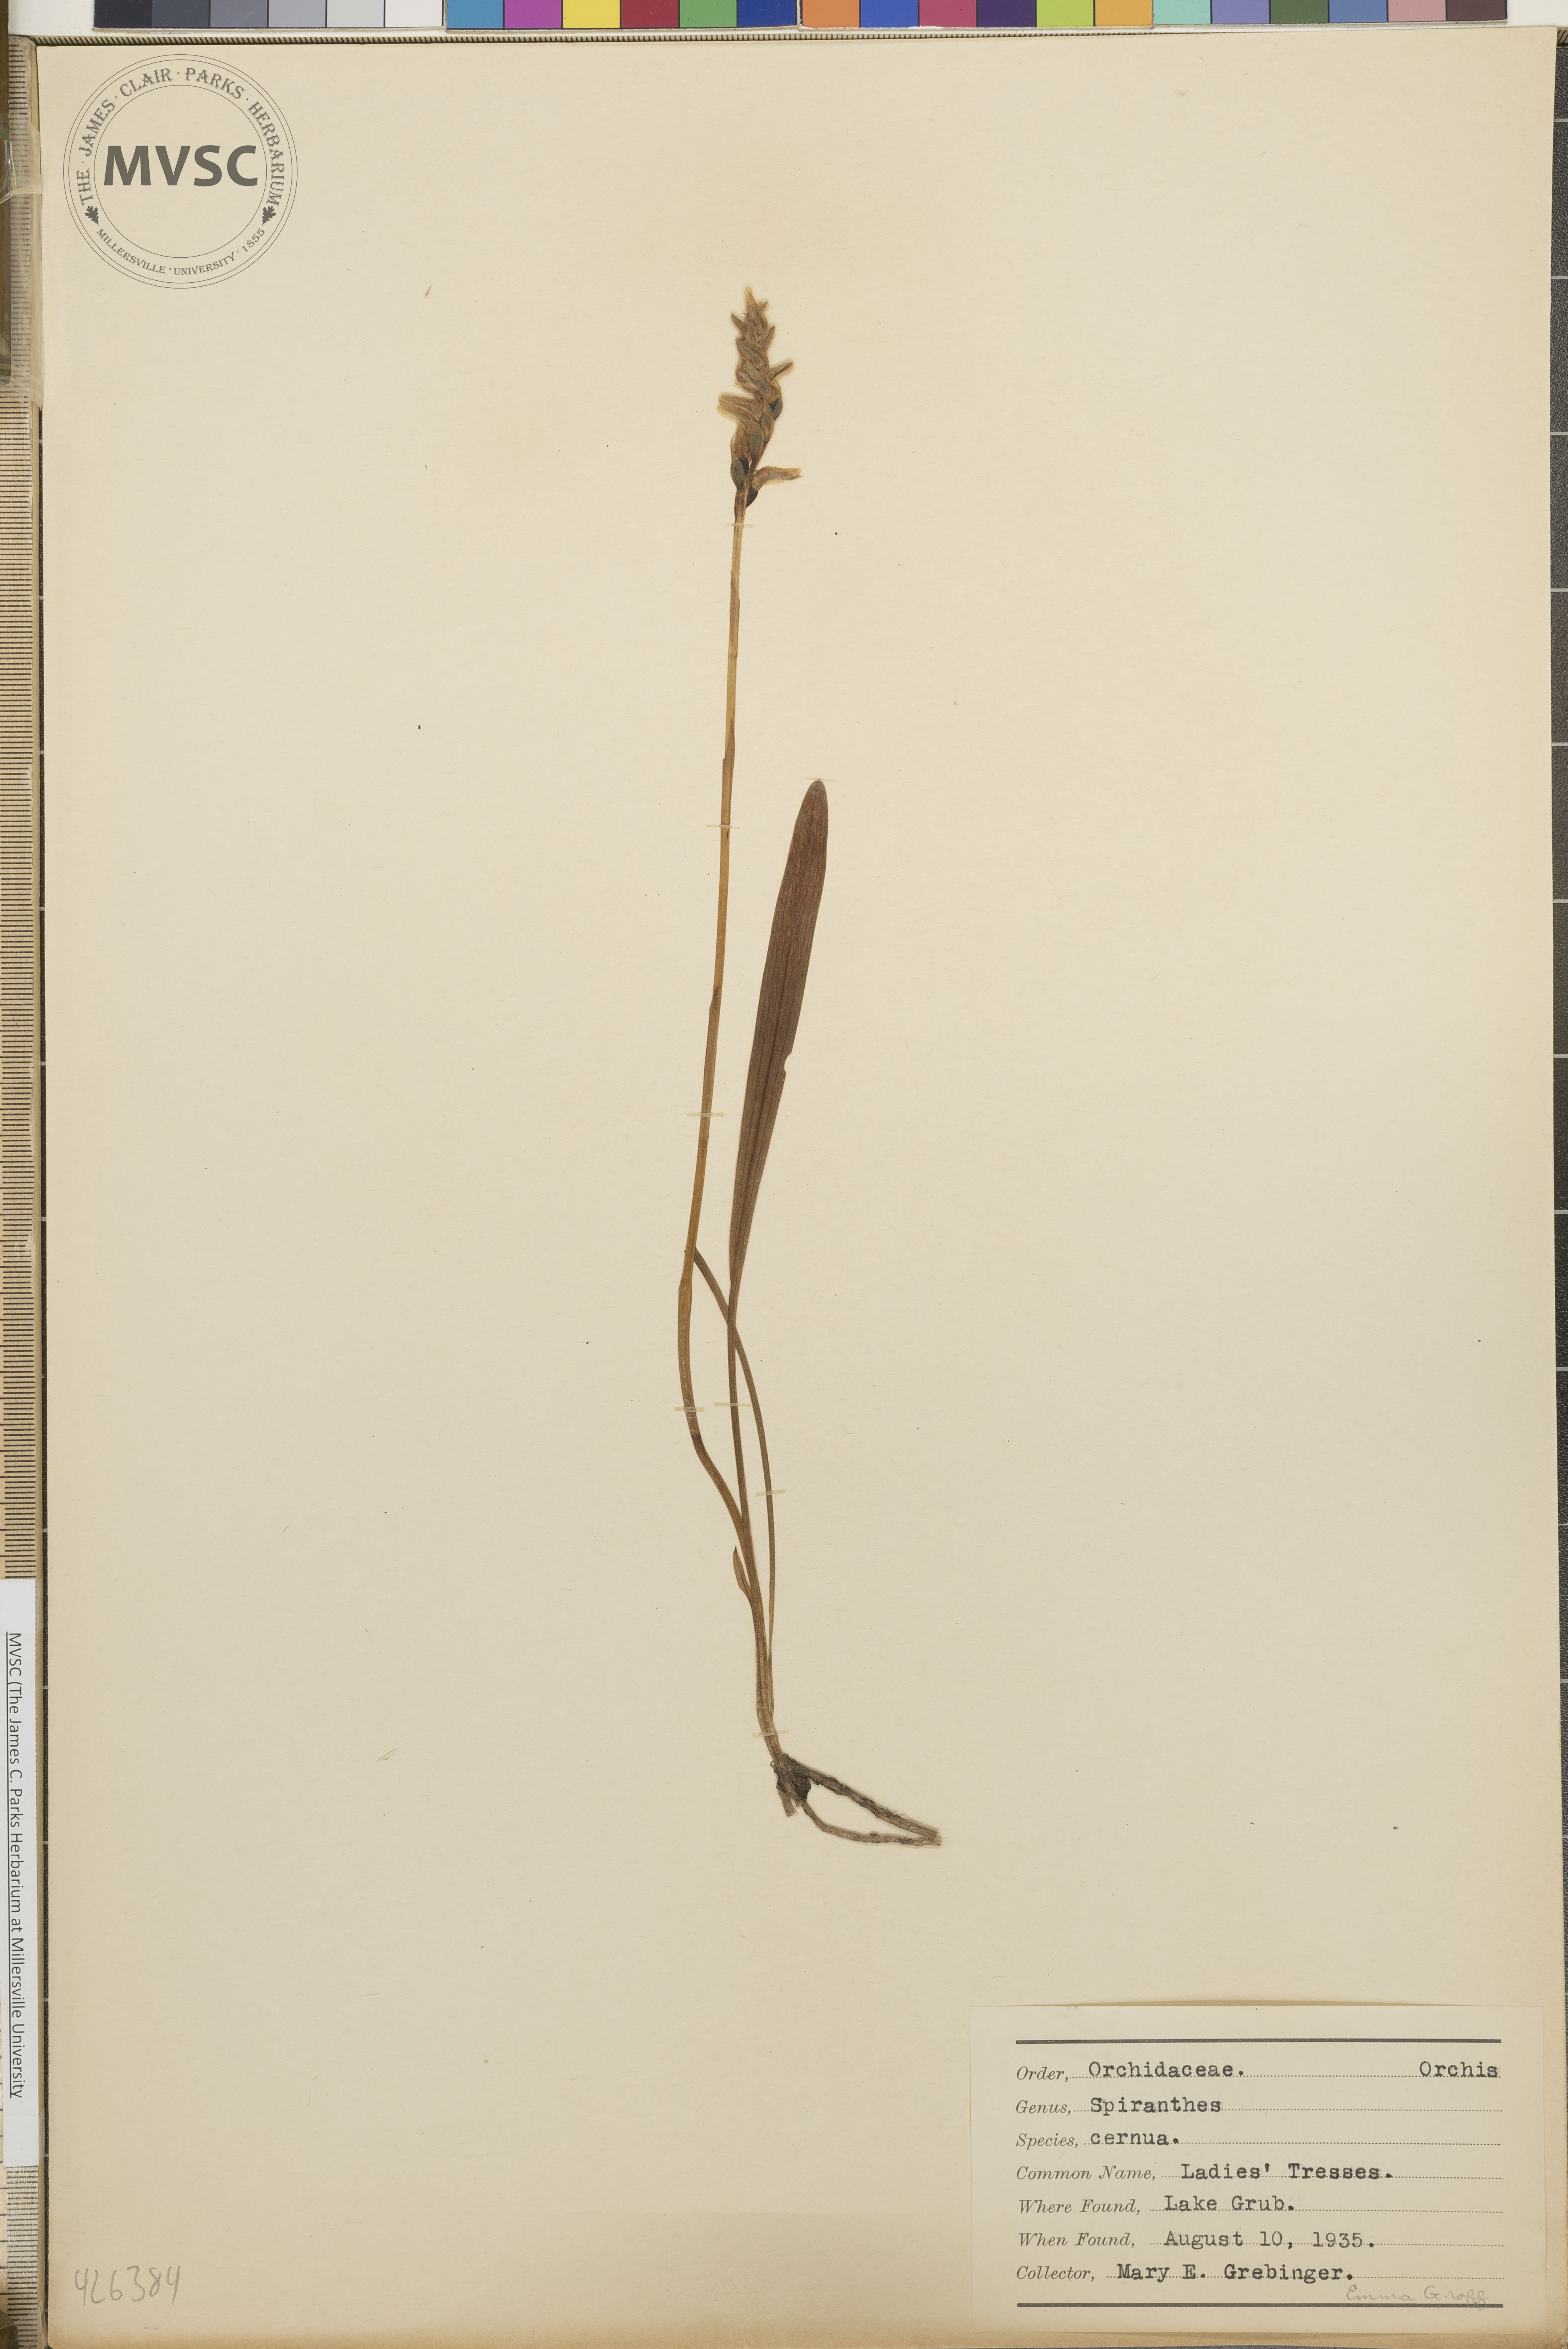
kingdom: Plantae
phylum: Tracheophyta
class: Liliopsida
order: Asparagales
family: Orchidaceae
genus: Spiranthes
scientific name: Spiranthes cernua
